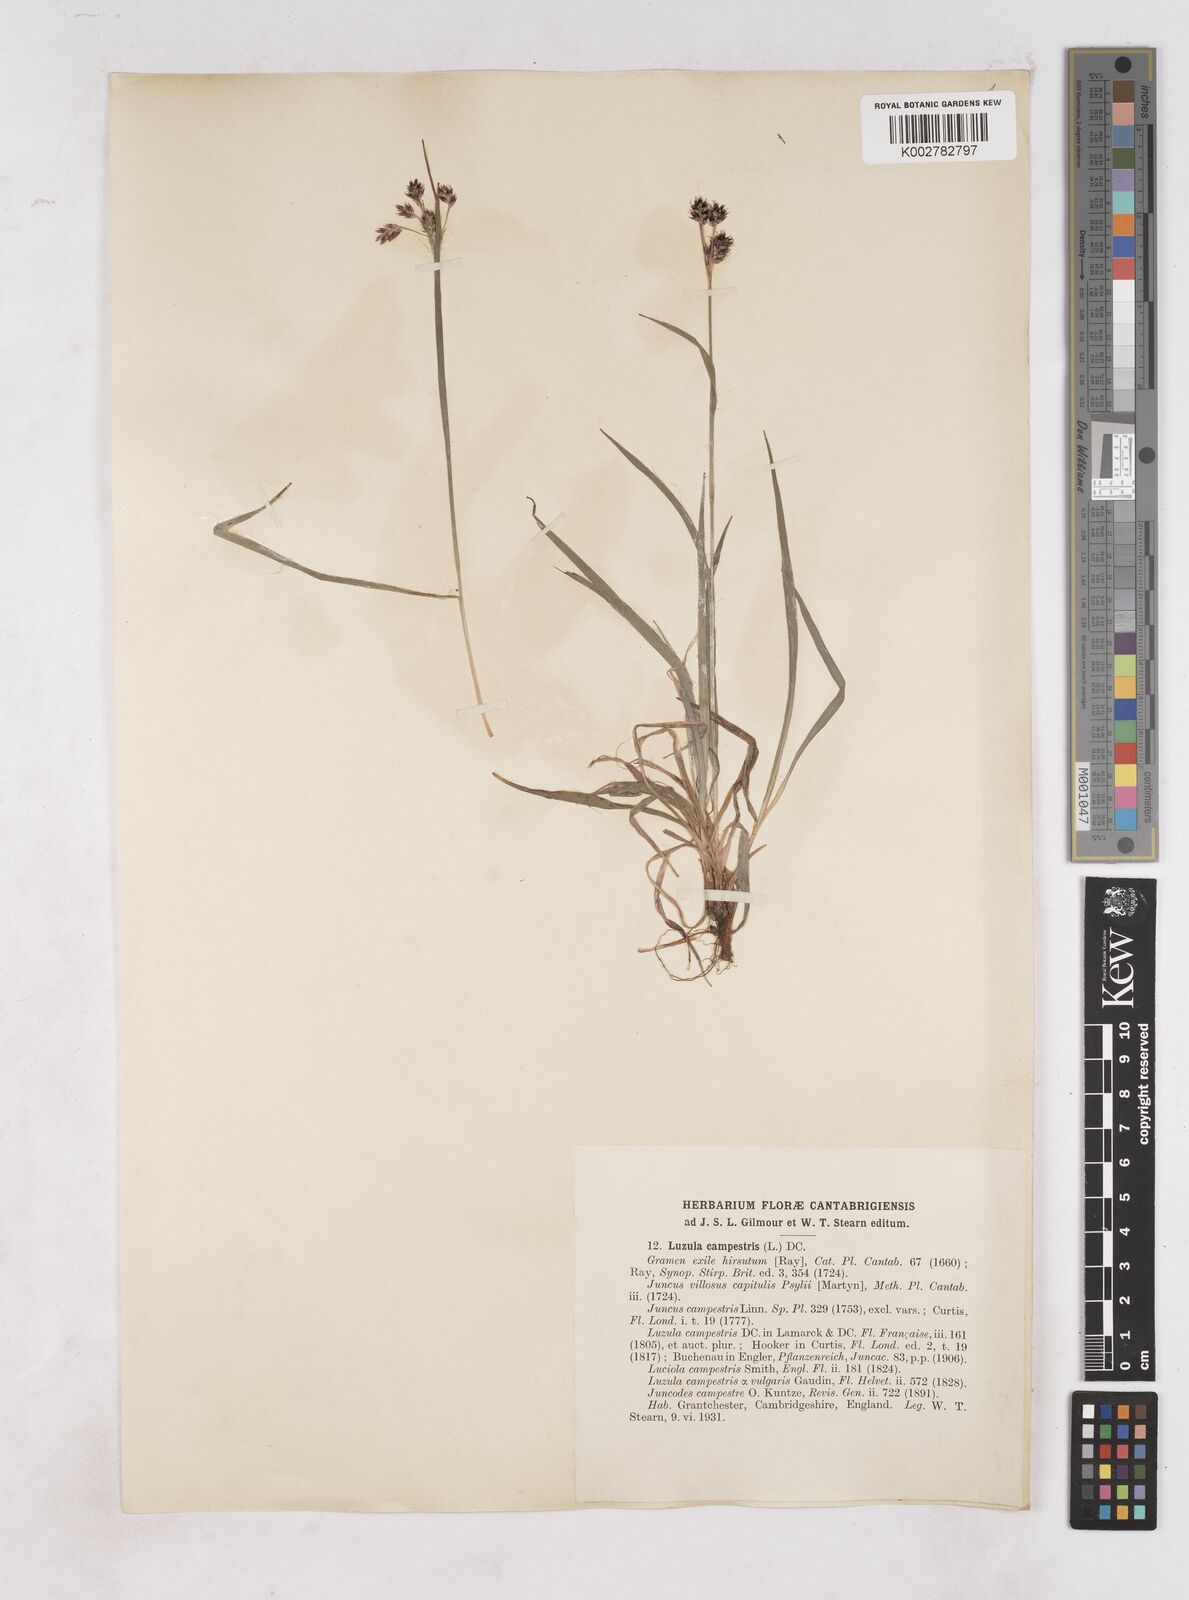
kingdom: Plantae
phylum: Tracheophyta
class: Liliopsida
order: Poales
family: Juncaceae
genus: Luzula
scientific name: Luzula campestris
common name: Field wood-rush
